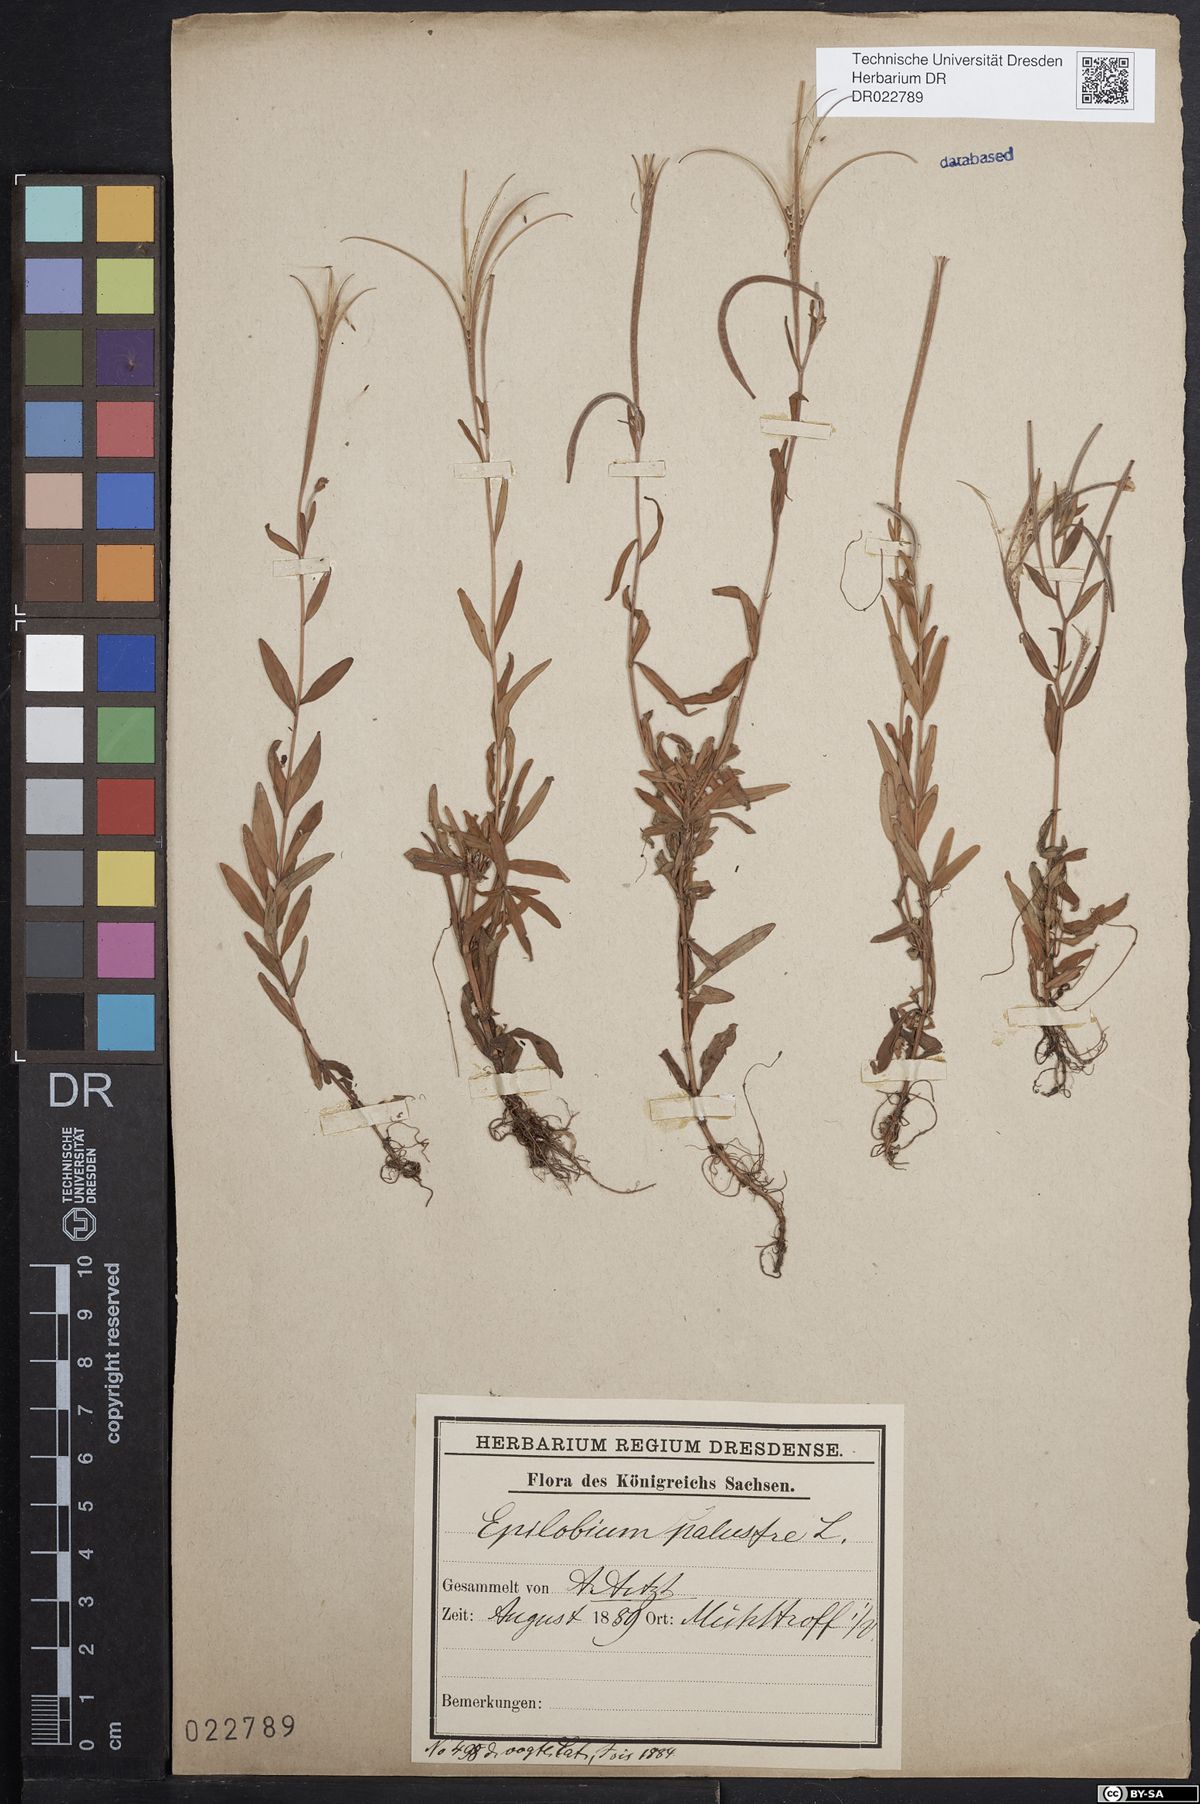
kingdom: Plantae
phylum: Tracheophyta
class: Magnoliopsida
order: Myrtales
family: Onagraceae
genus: Epilobium
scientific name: Epilobium palustre
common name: Marsh willowherb
